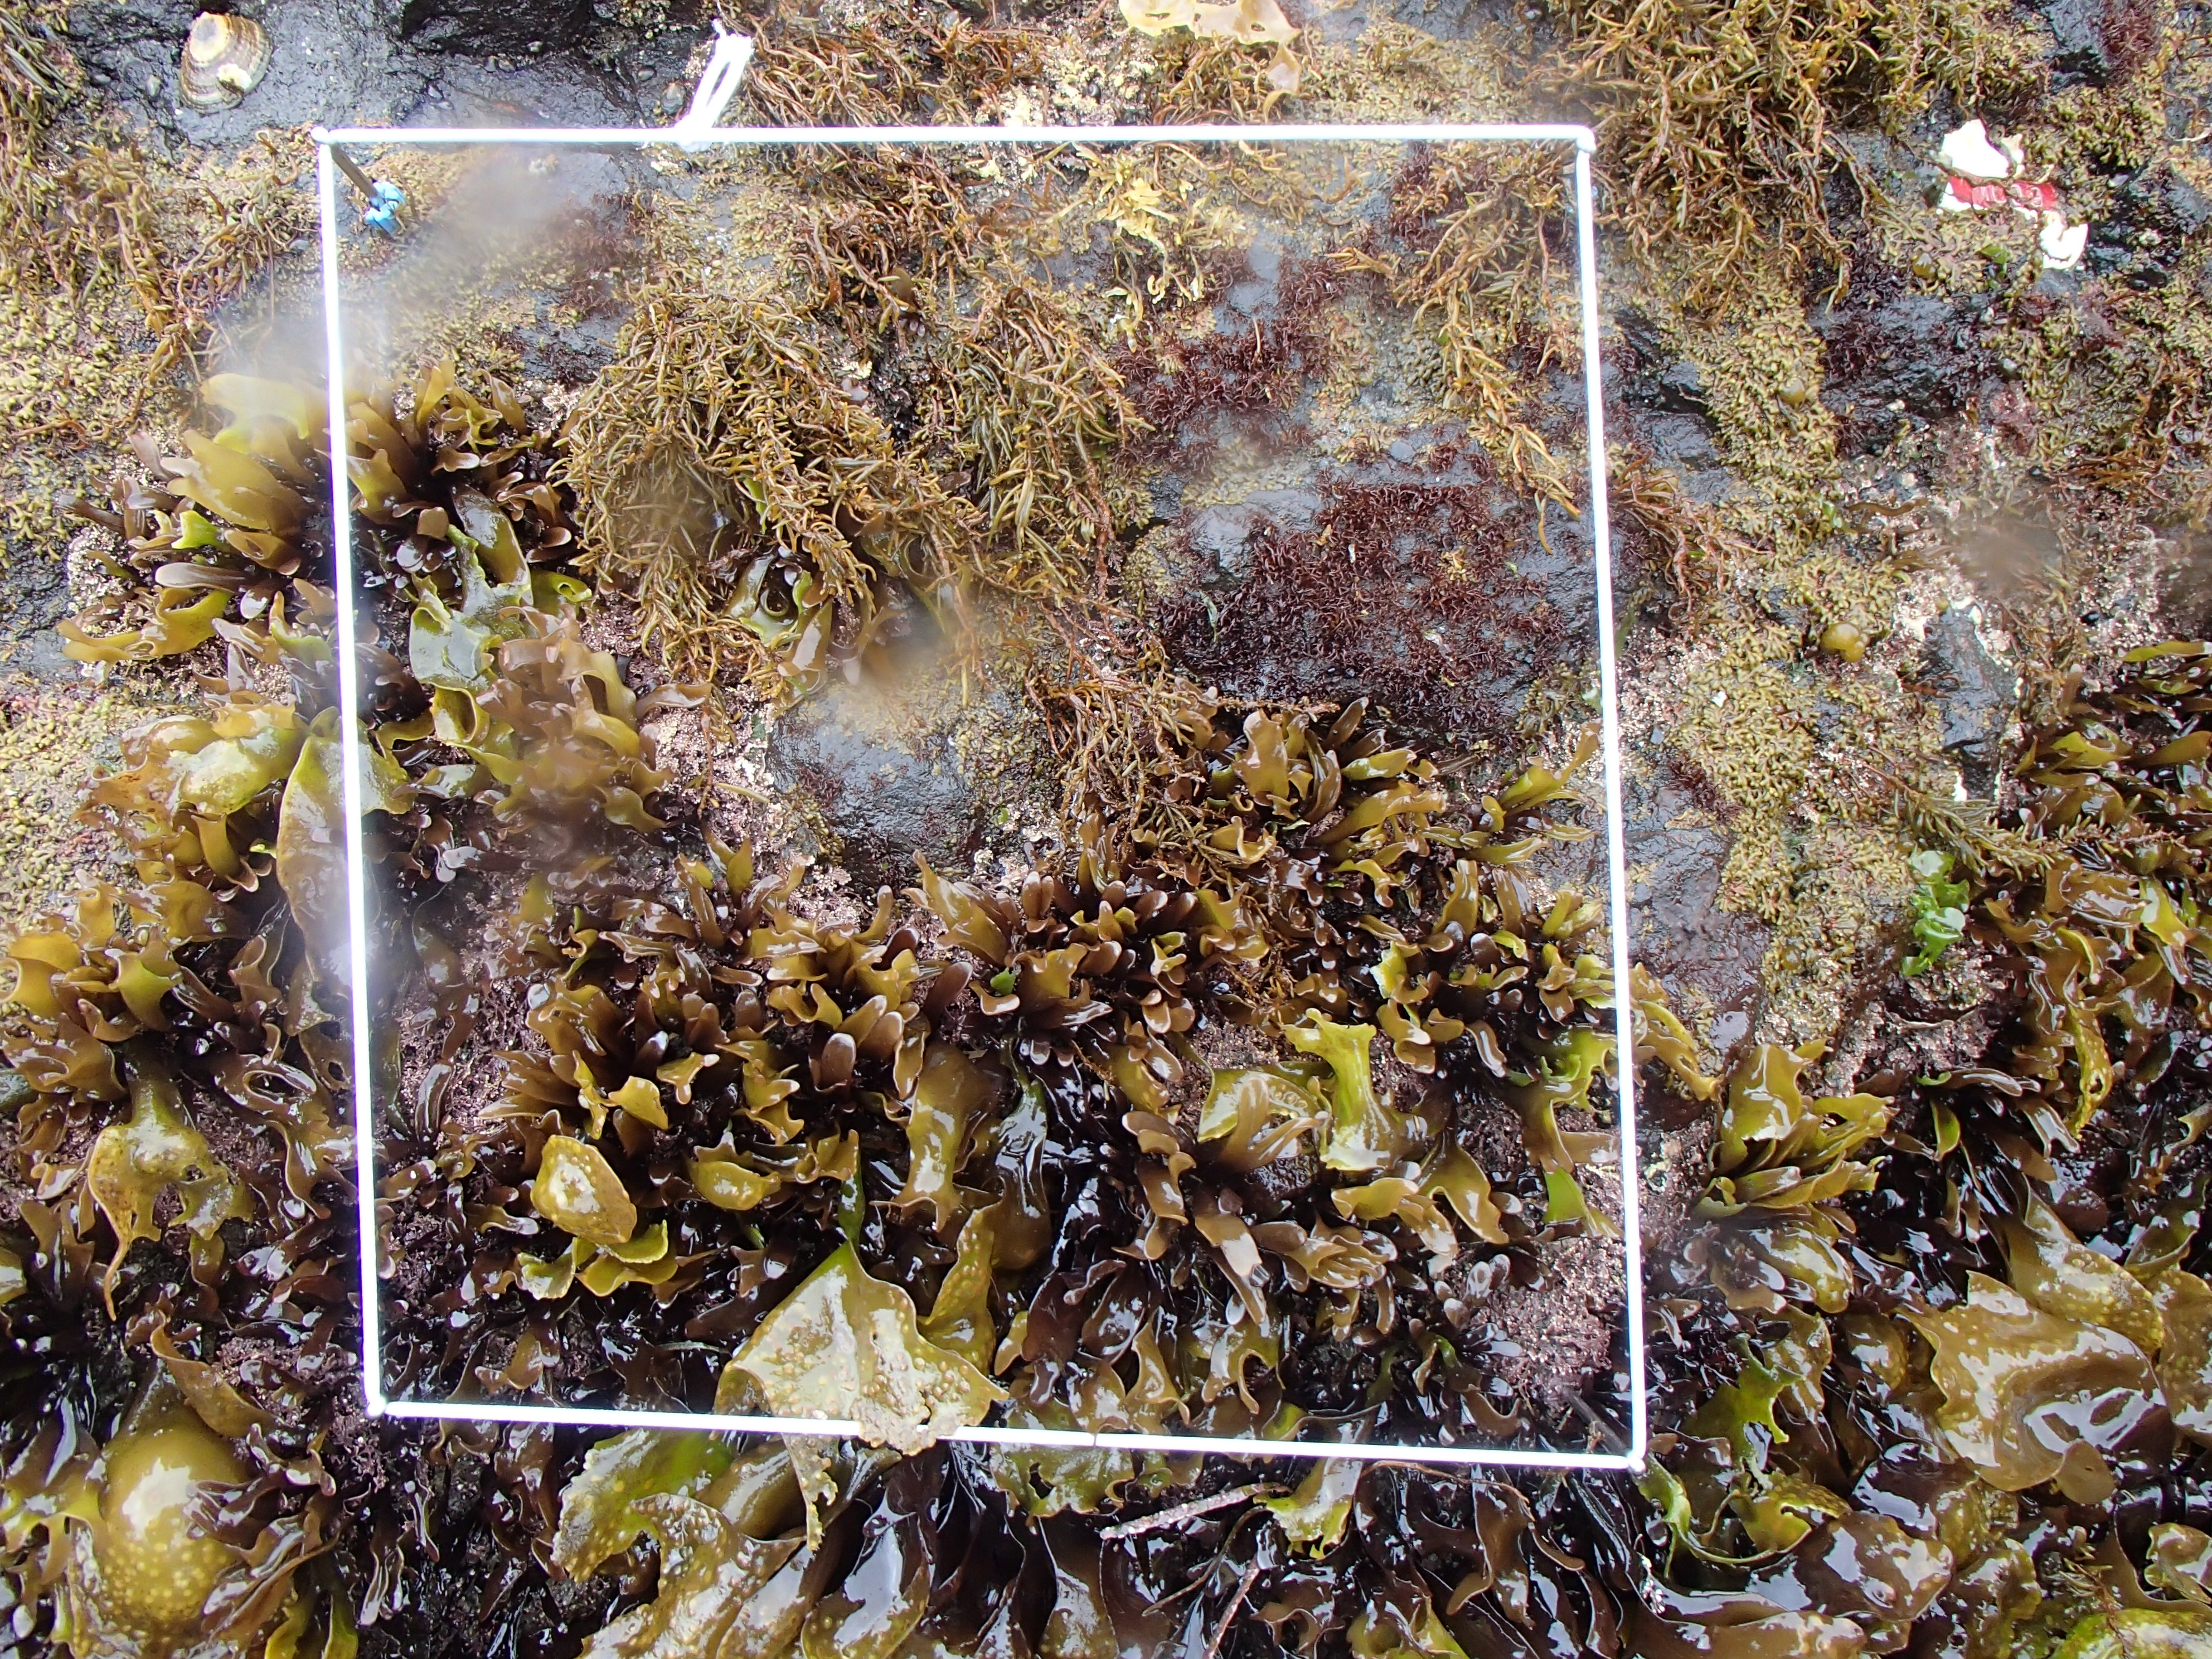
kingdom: Plantae
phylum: Rhodophyta
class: Florideophyceae
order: Gigartinales
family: Endocladiaceae
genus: Gloiopeltis
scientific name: Gloiopeltis furcata
